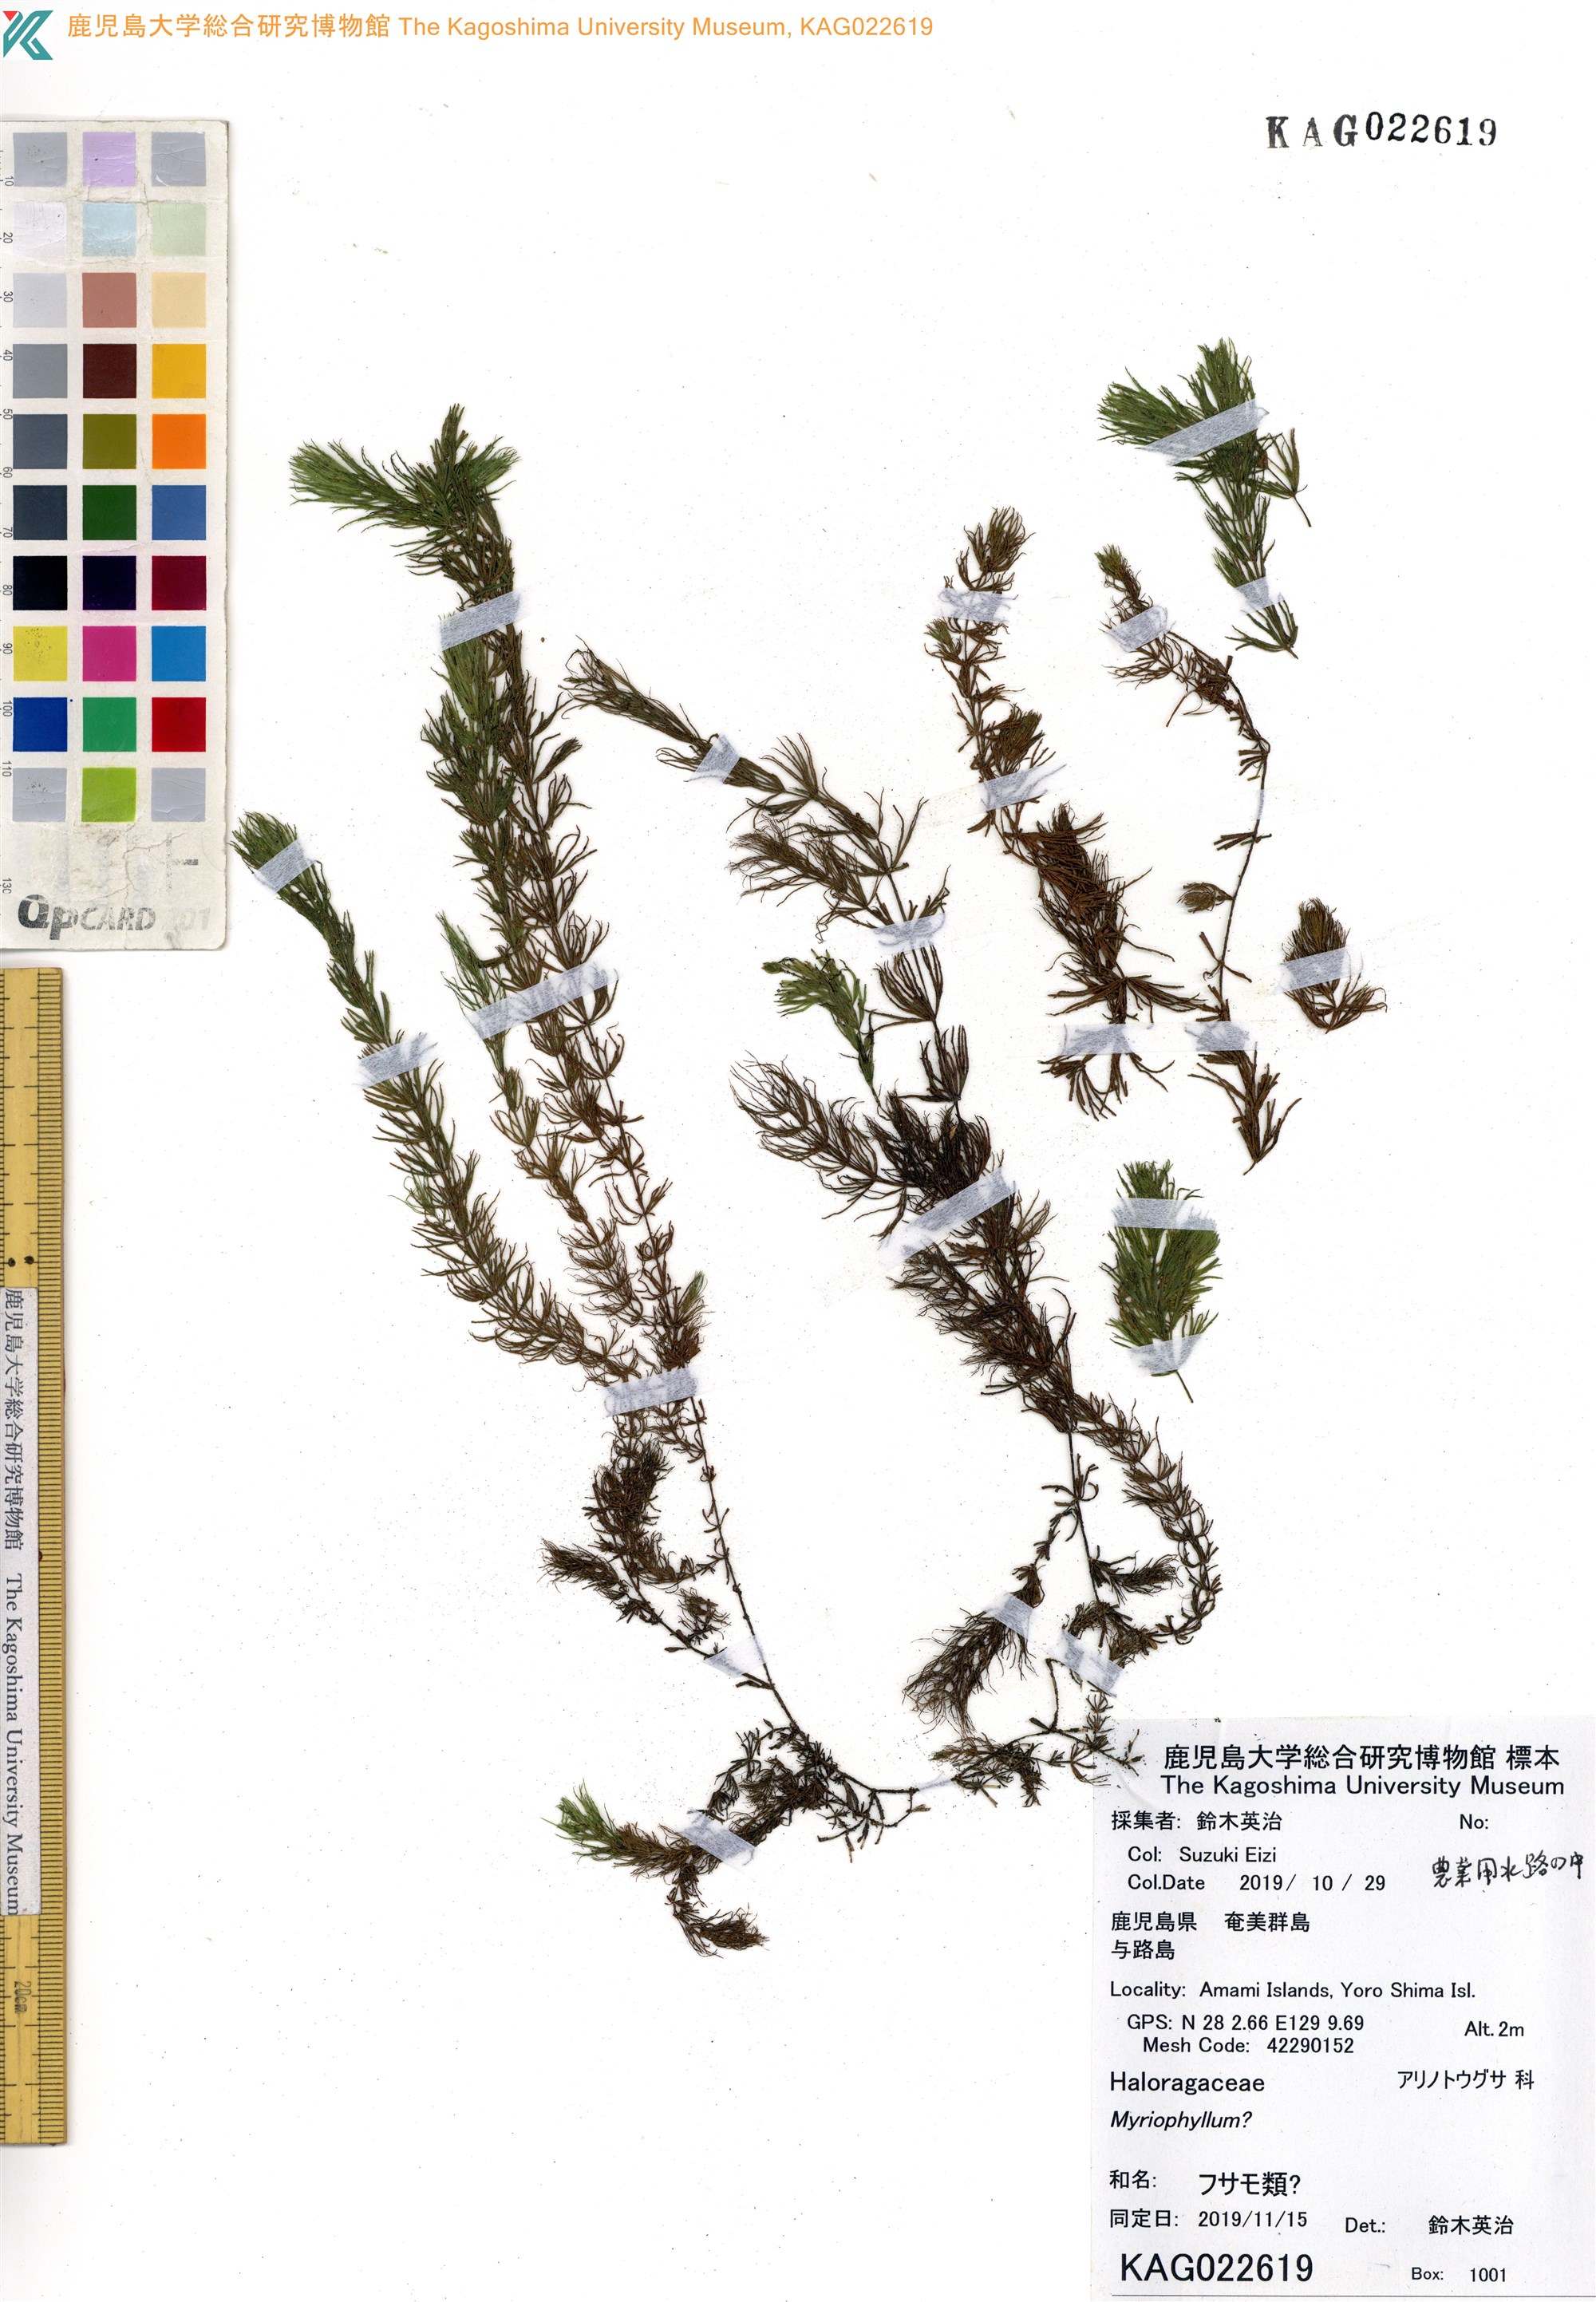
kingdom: Plantae
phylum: Tracheophyta
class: Magnoliopsida
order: Ceratophyllales
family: Ceratophyllaceae
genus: Ceratophyllum
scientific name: Ceratophyllum demersum
